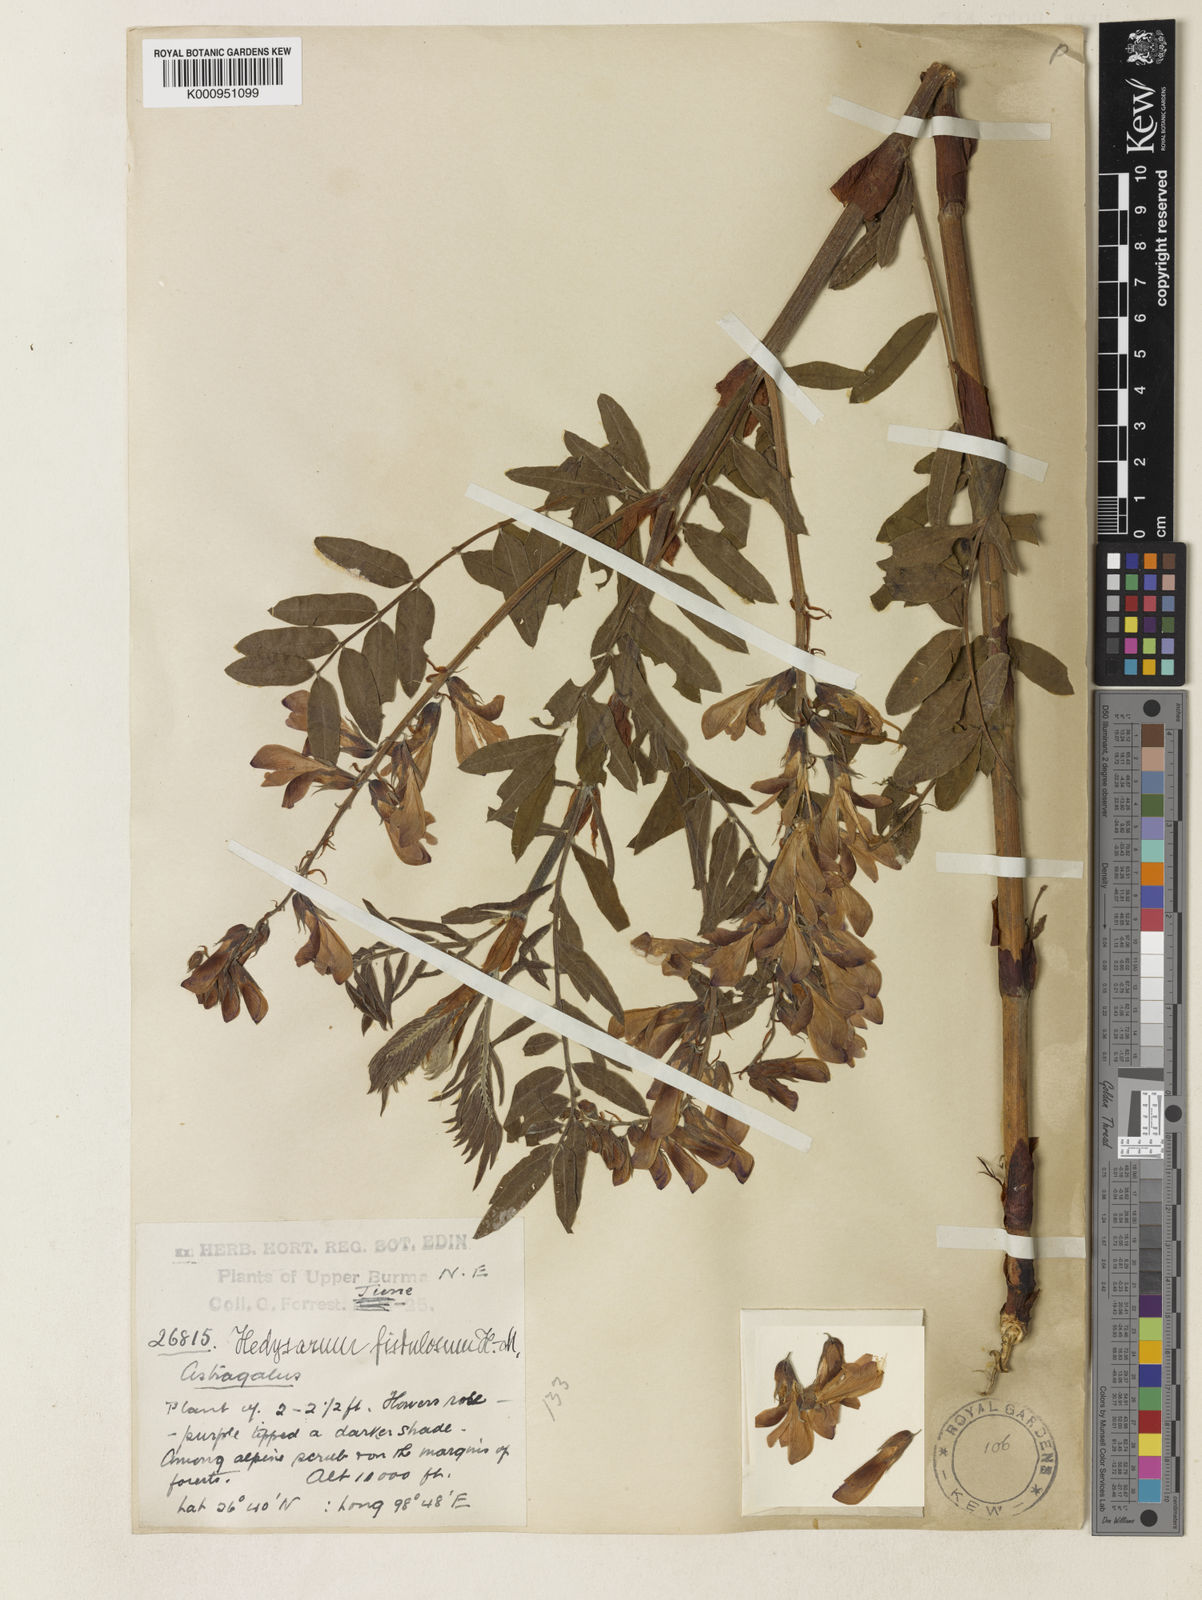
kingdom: Plantae
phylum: Tracheophyta
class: Magnoliopsida
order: Fabales
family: Fabaceae
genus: Hedysarum
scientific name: Hedysarum fistulosum
